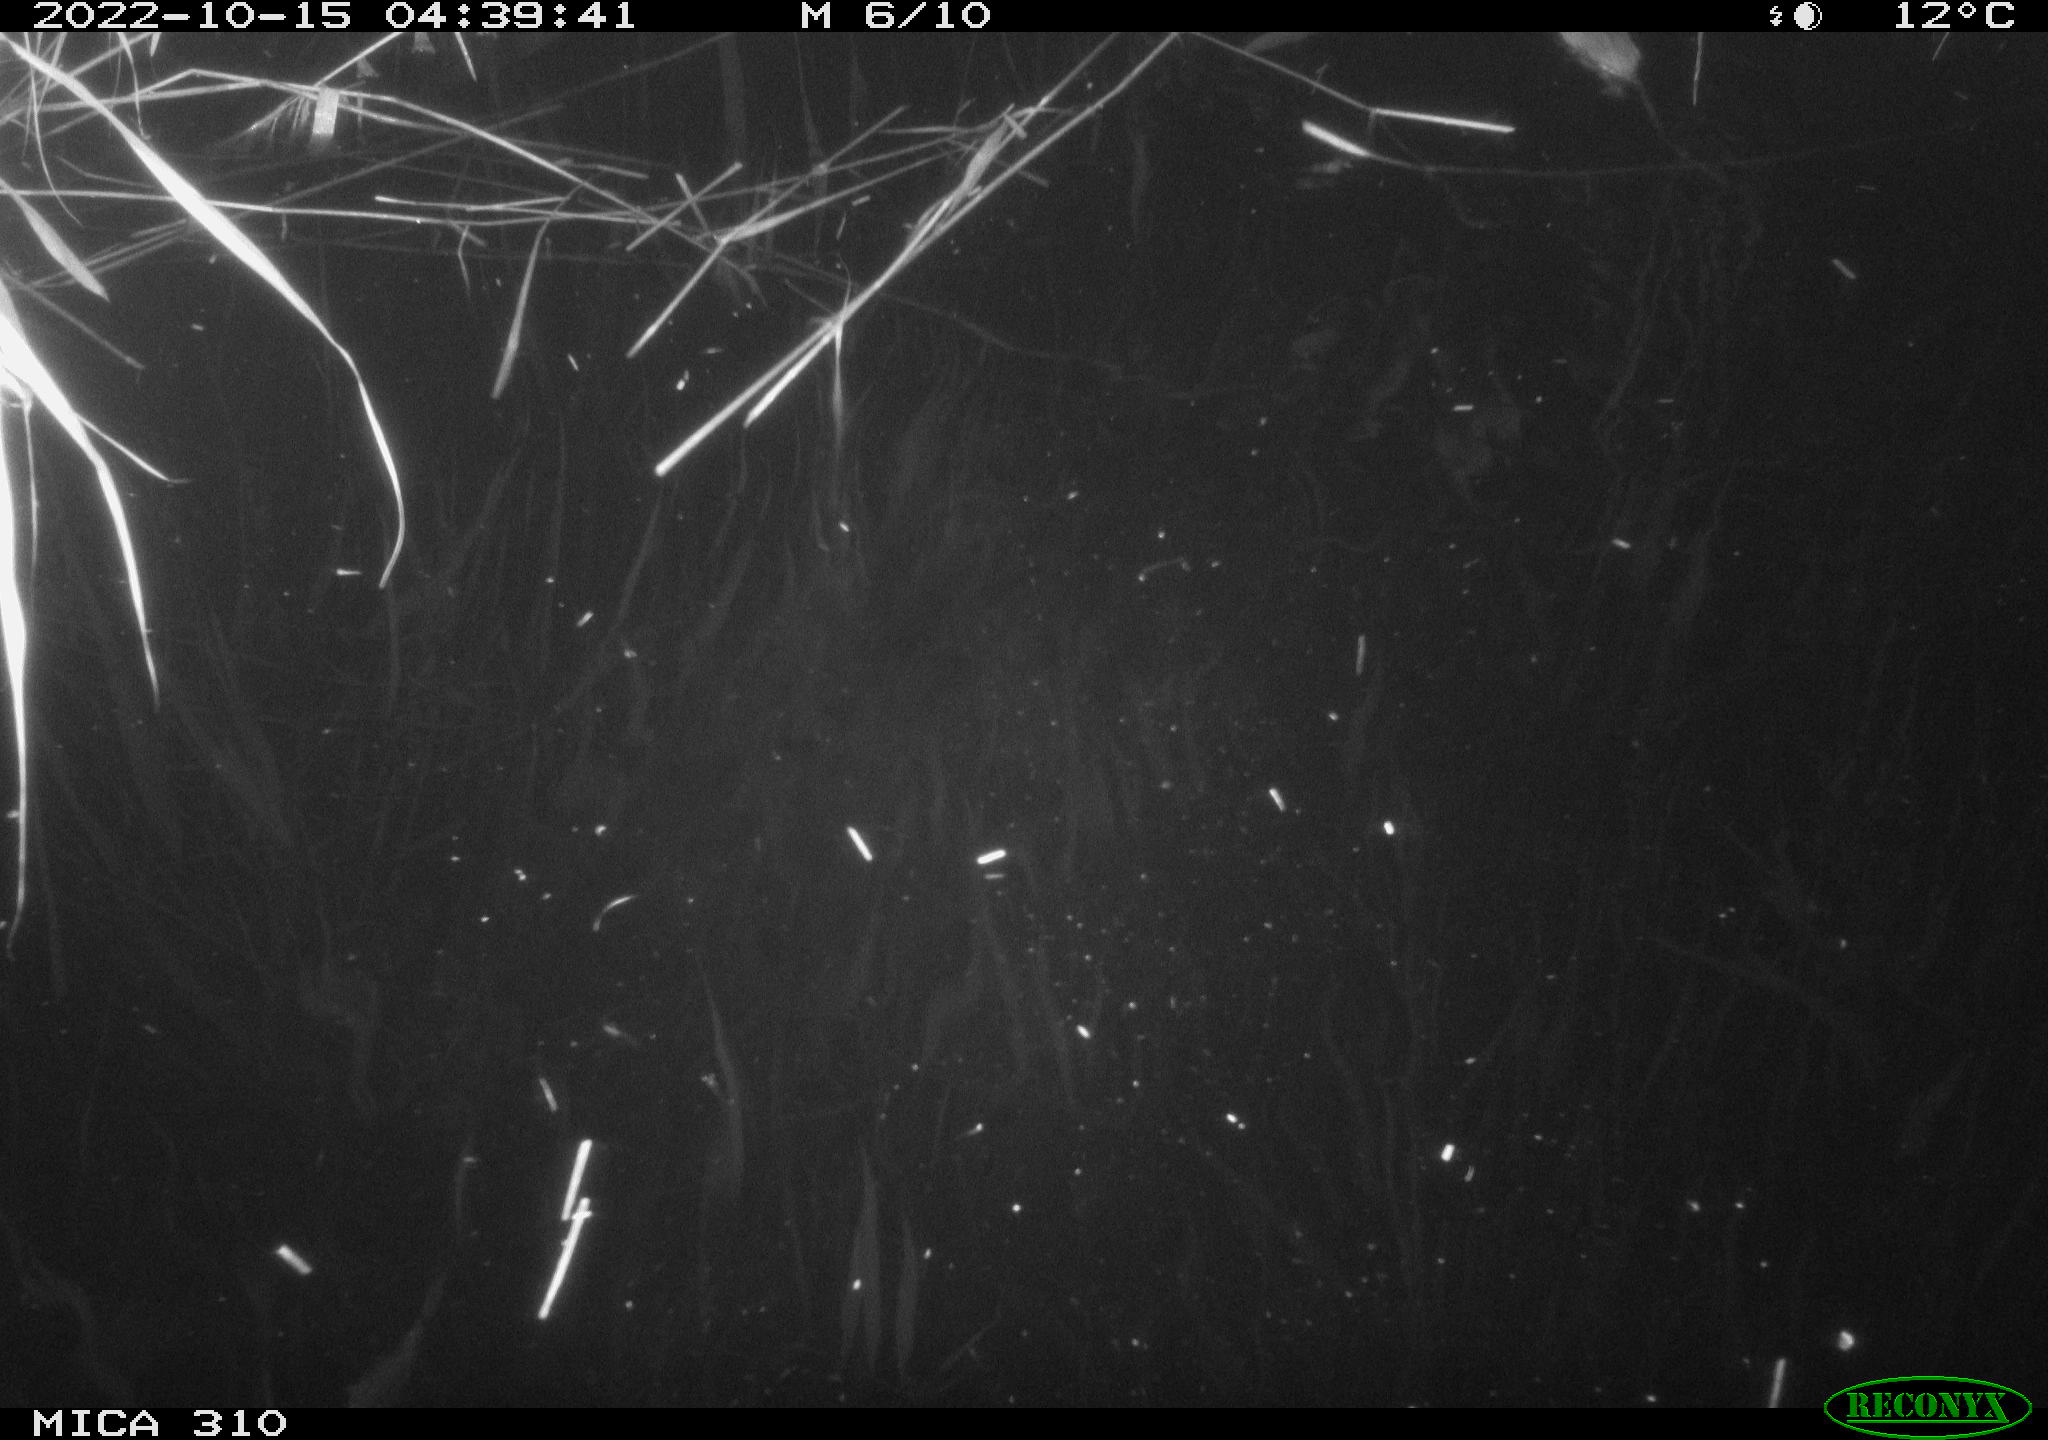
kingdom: Animalia
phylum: Chordata
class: Mammalia
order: Rodentia
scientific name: Rodentia
